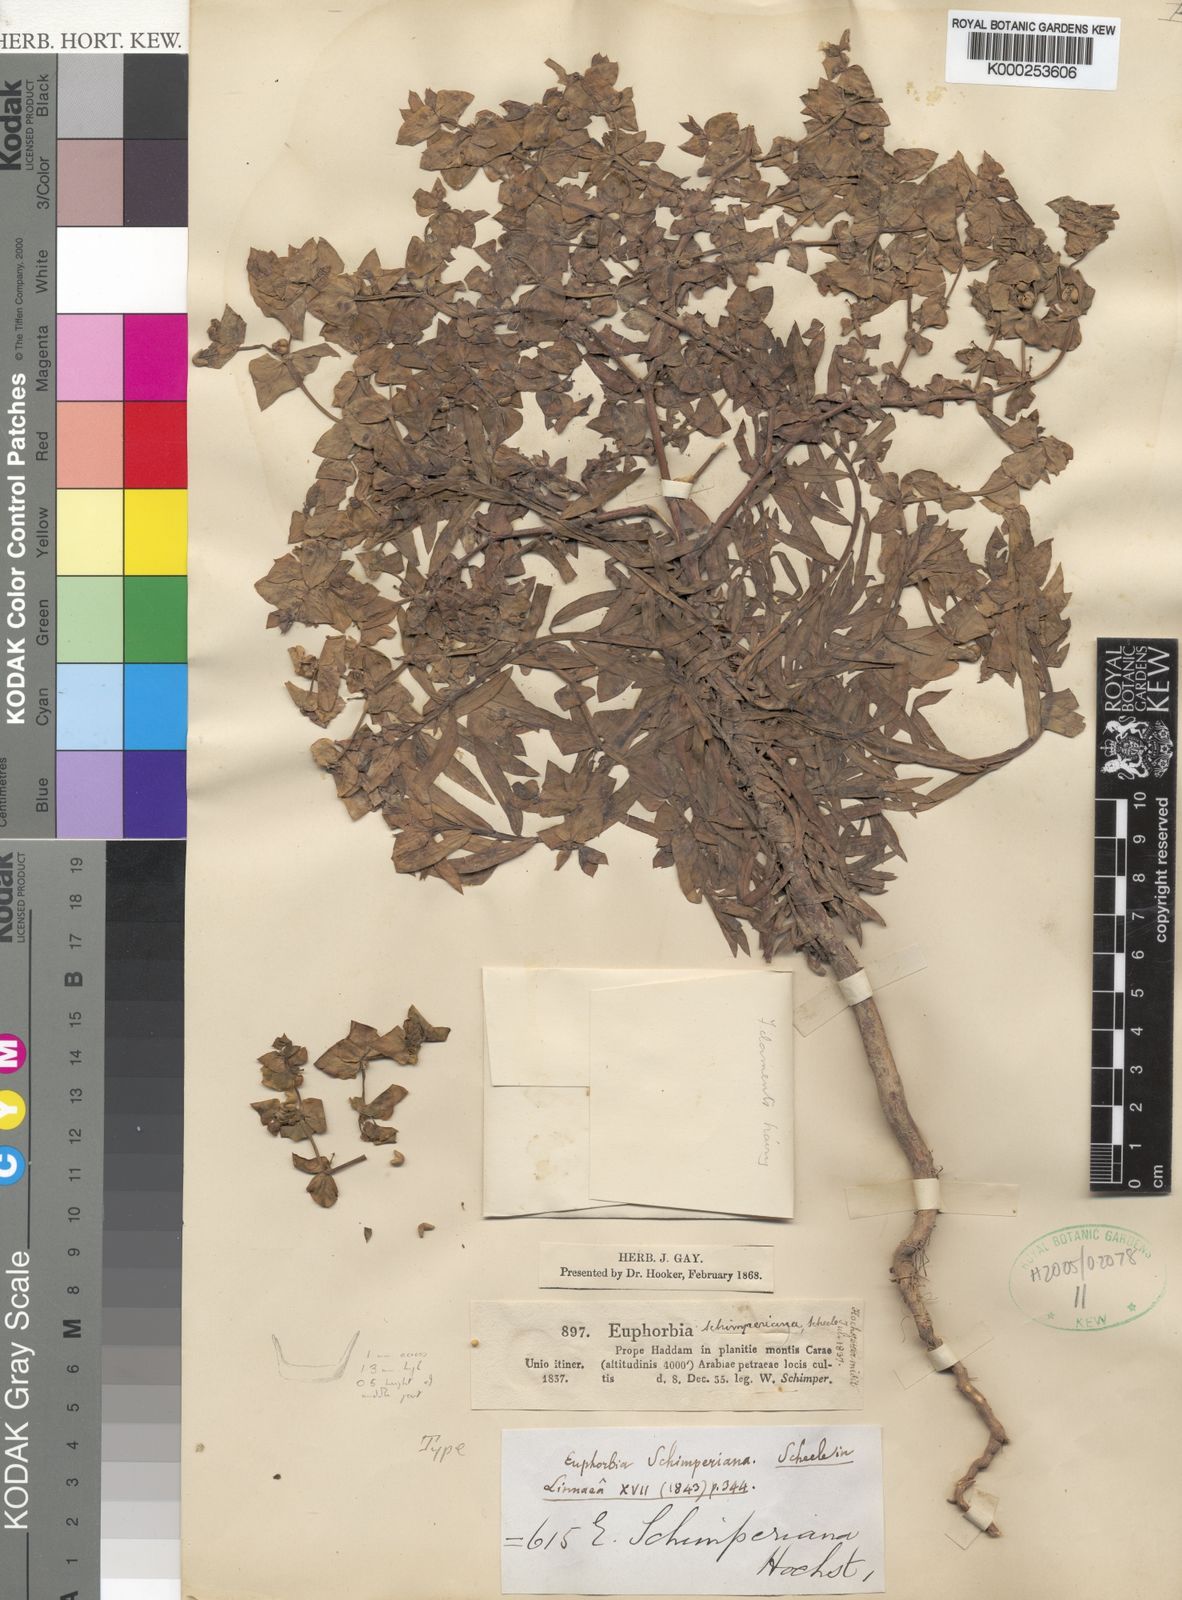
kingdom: Plantae
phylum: Tracheophyta
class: Magnoliopsida
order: Malpighiales
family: Euphorbiaceae
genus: Euphorbia
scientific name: Euphorbia schimperiana
